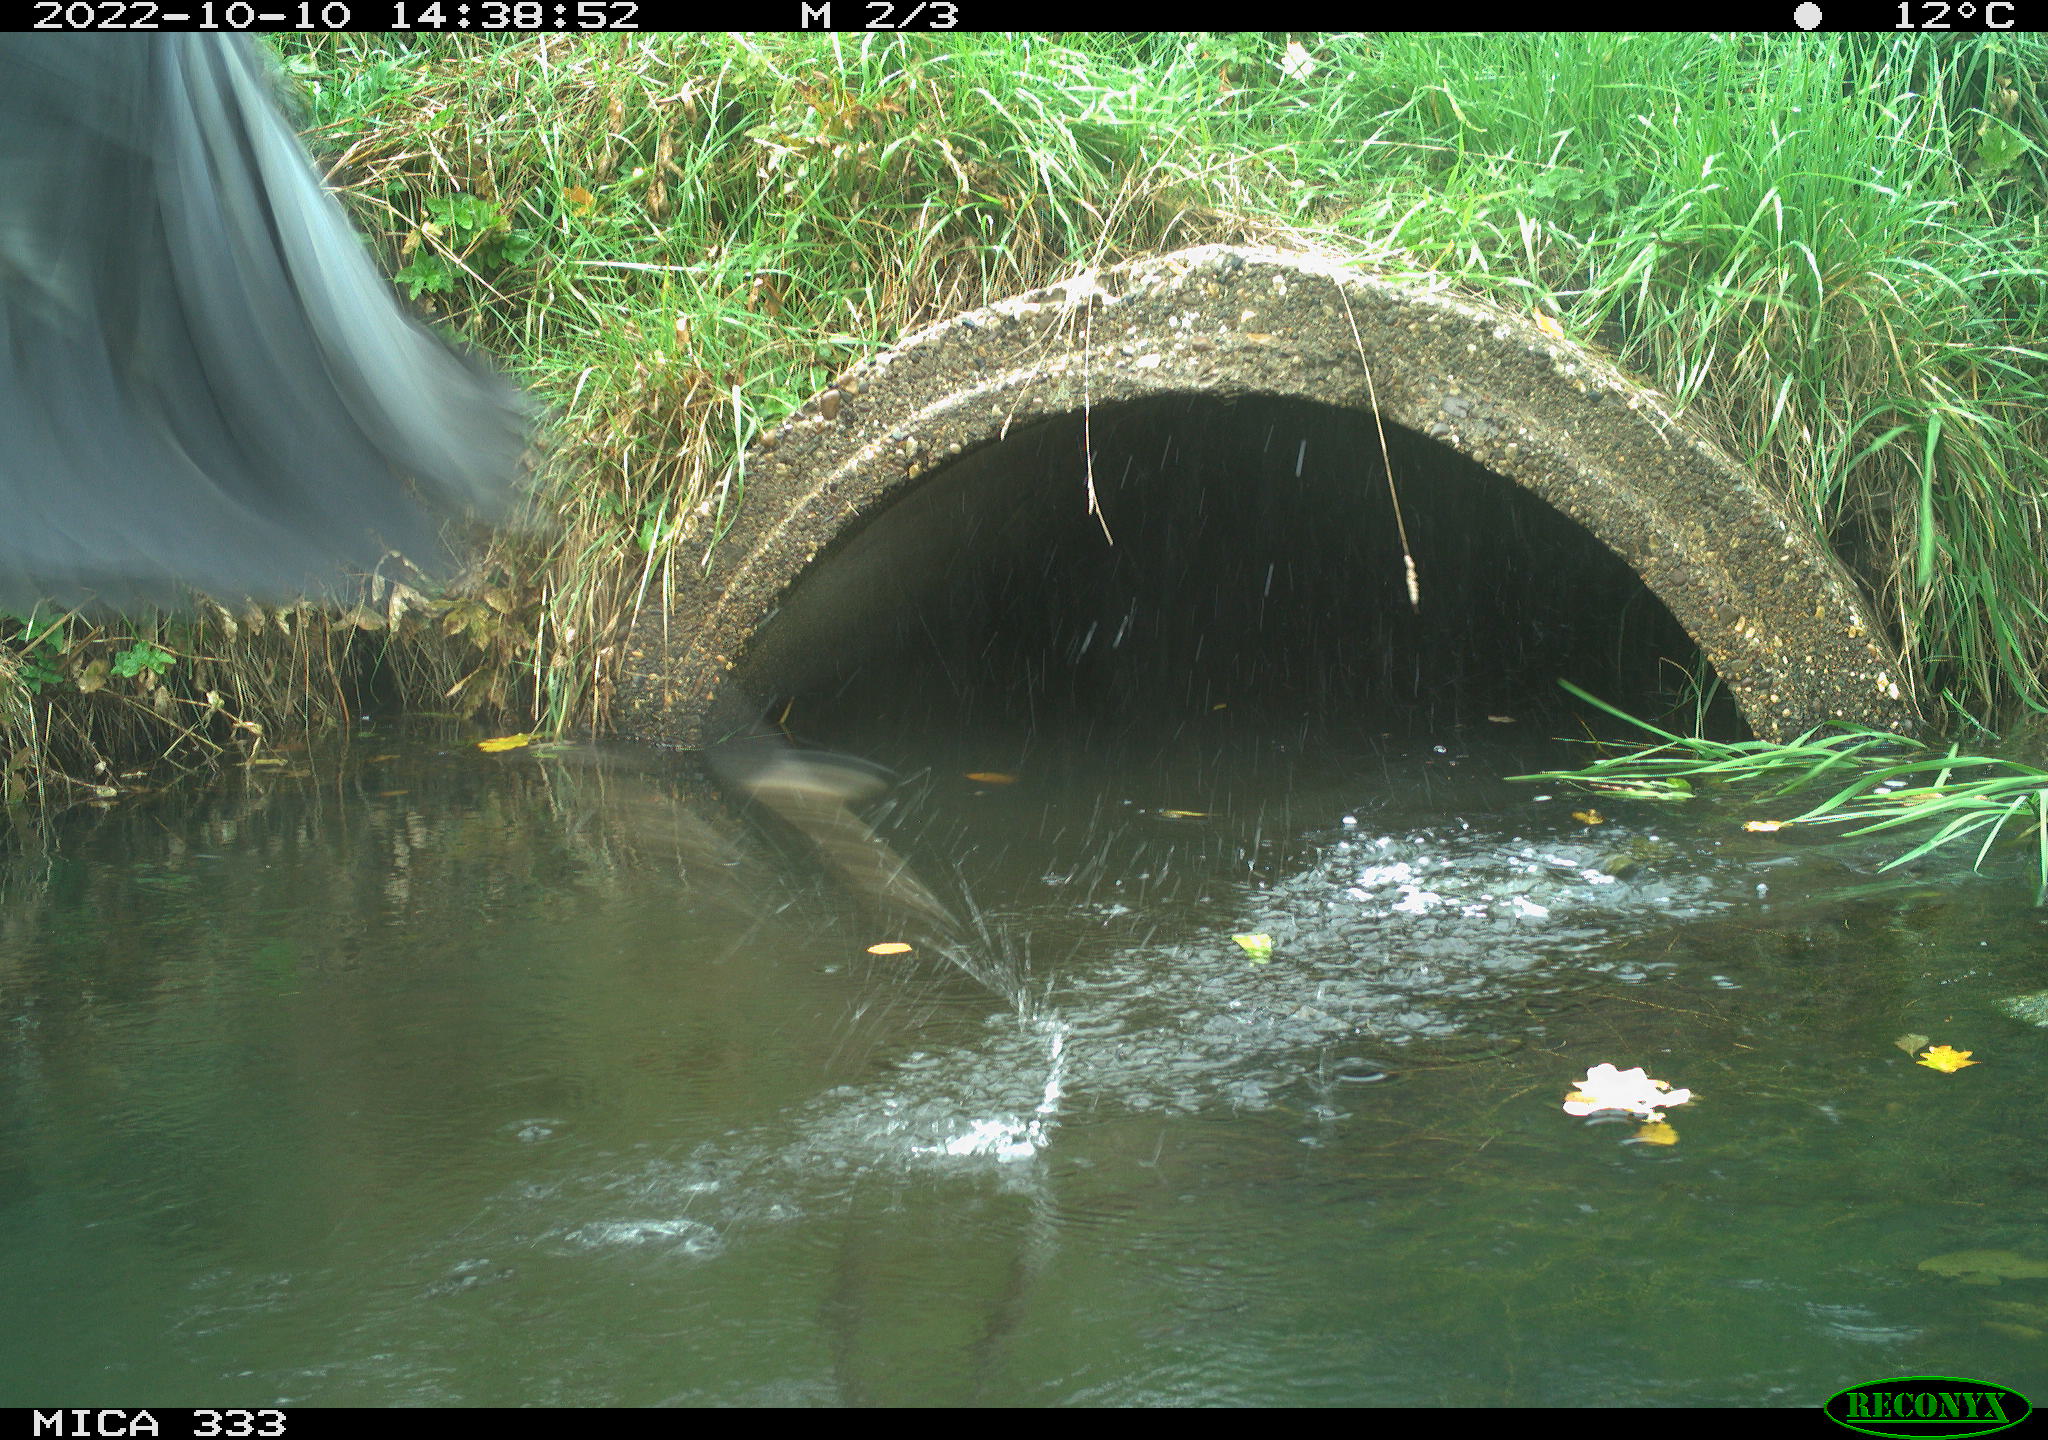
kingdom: Animalia
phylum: Chordata
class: Aves
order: Pelecaniformes
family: Ardeidae
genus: Ardea
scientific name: Ardea cinerea
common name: Grey heron
